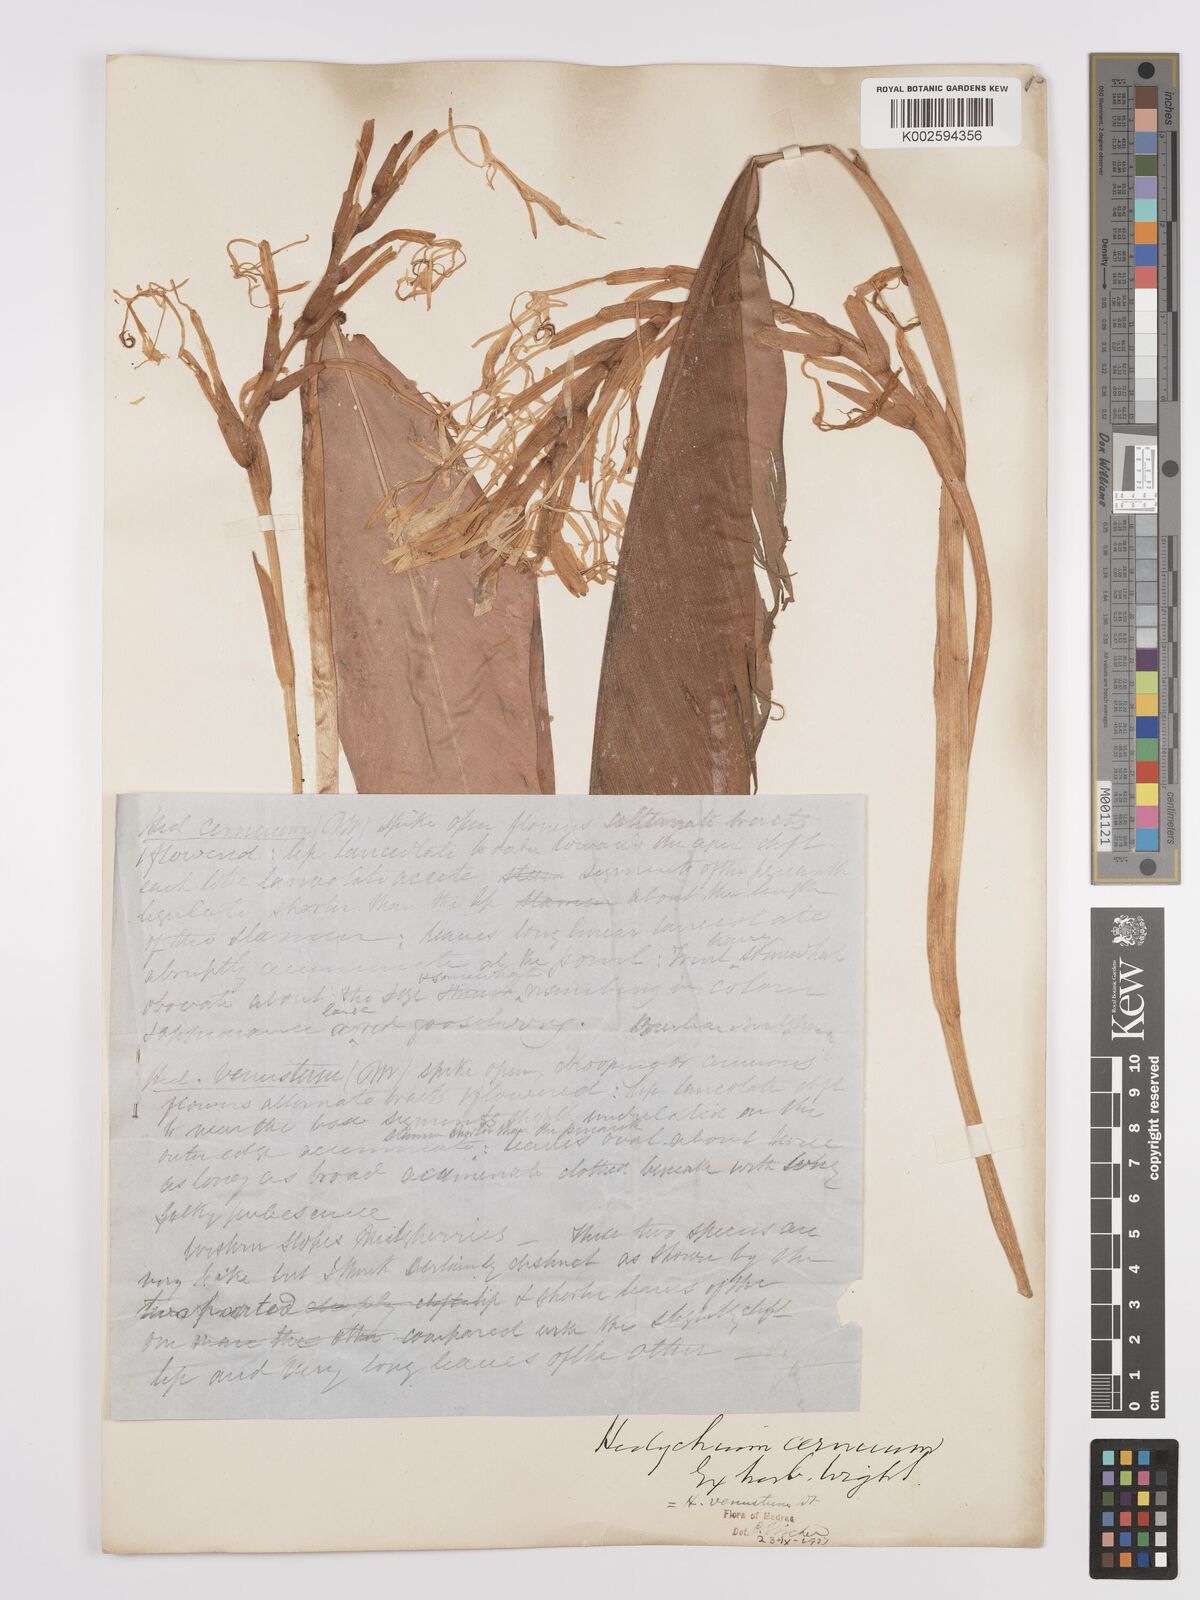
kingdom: Plantae
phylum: Tracheophyta
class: Liliopsida
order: Zingiberales
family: Zingiberaceae
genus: Hedychium
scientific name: Hedychium venustum
